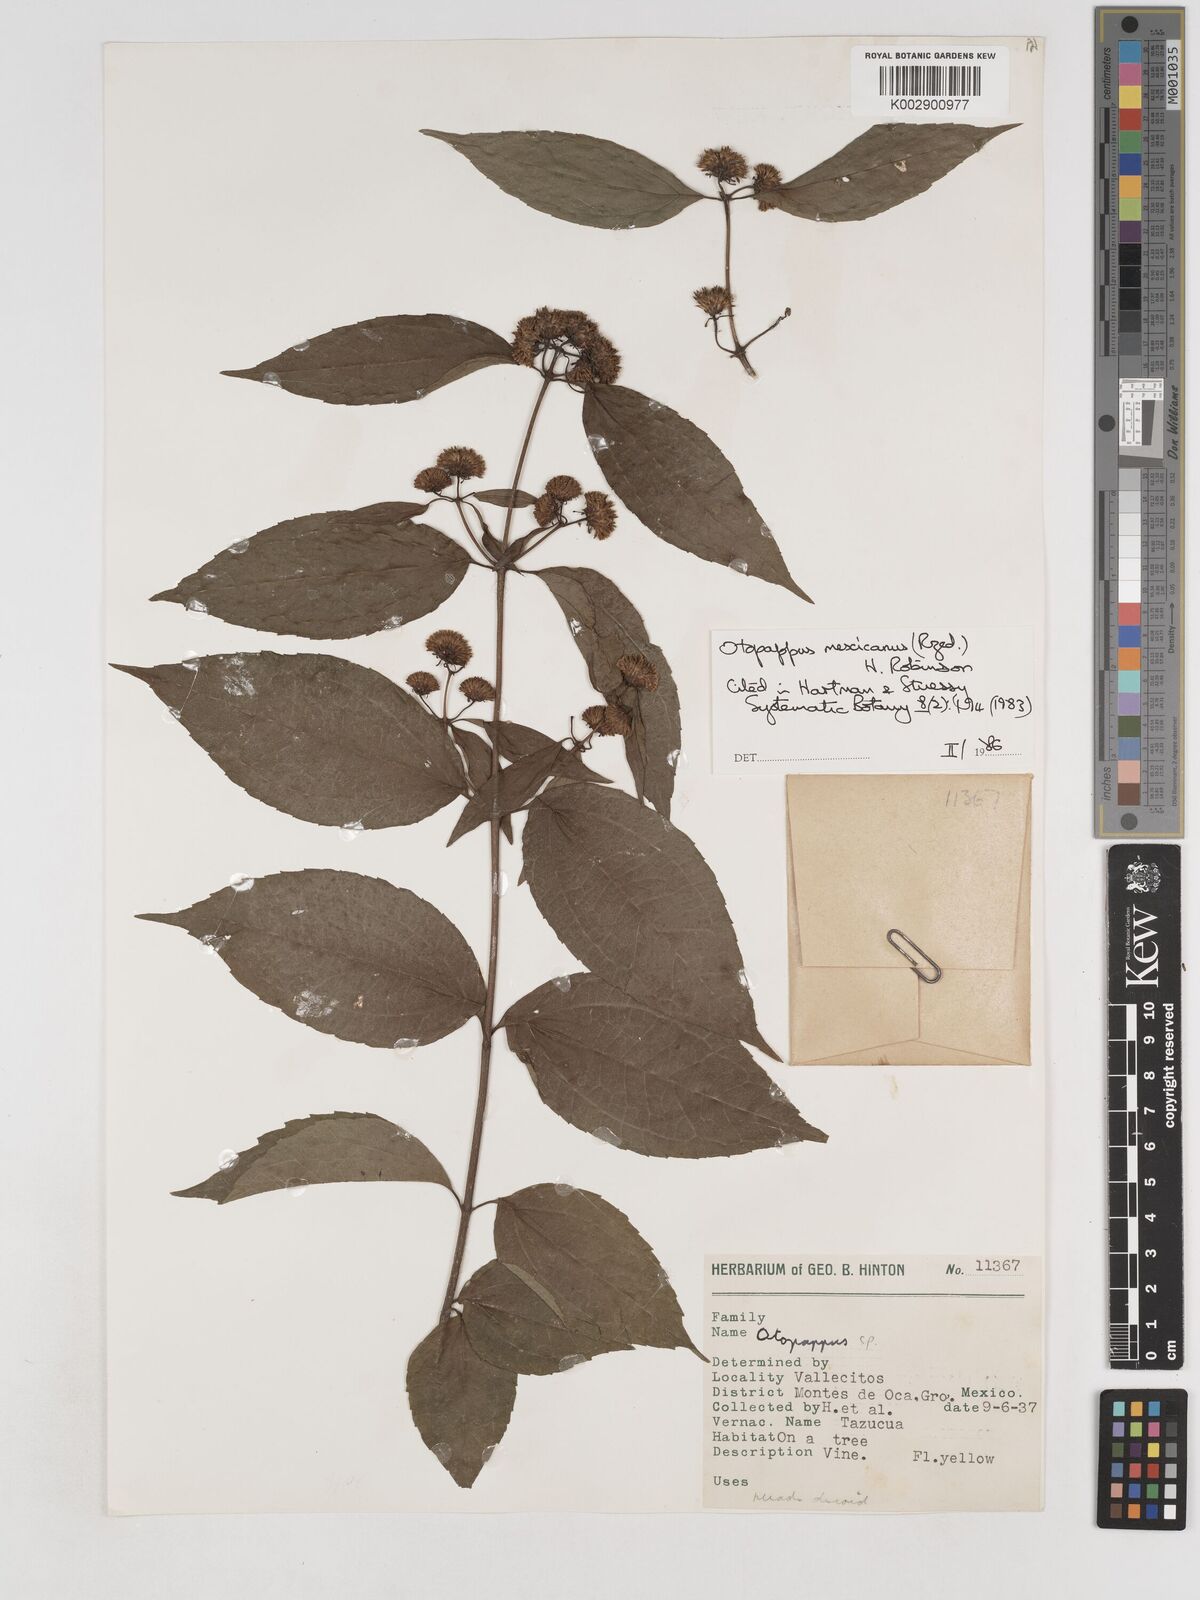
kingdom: Plantae
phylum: Tracheophyta
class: Magnoliopsida
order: Asterales
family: Asteraceae
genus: Otopappus
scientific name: Otopappus mexicanus
